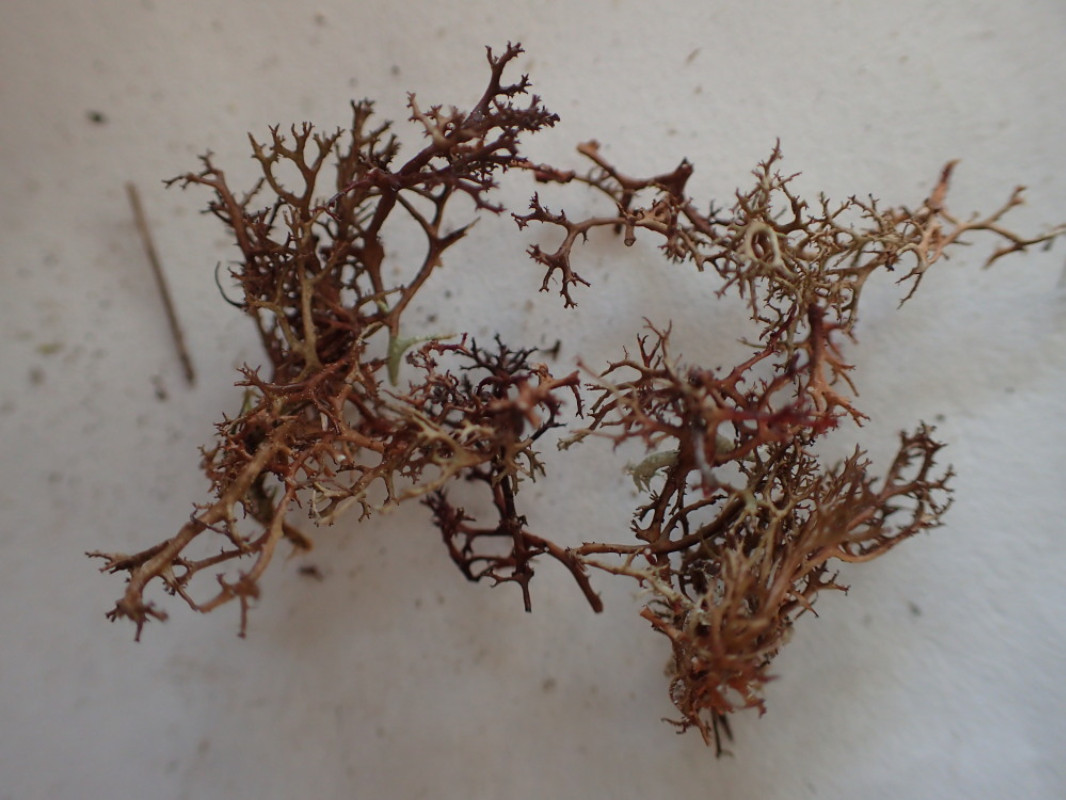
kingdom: Fungi
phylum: Ascomycota
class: Lecanoromycetes
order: Lecanorales
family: Parmeliaceae
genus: Cetraria
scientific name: Cetraria muricata
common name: tue-tjørnelav
